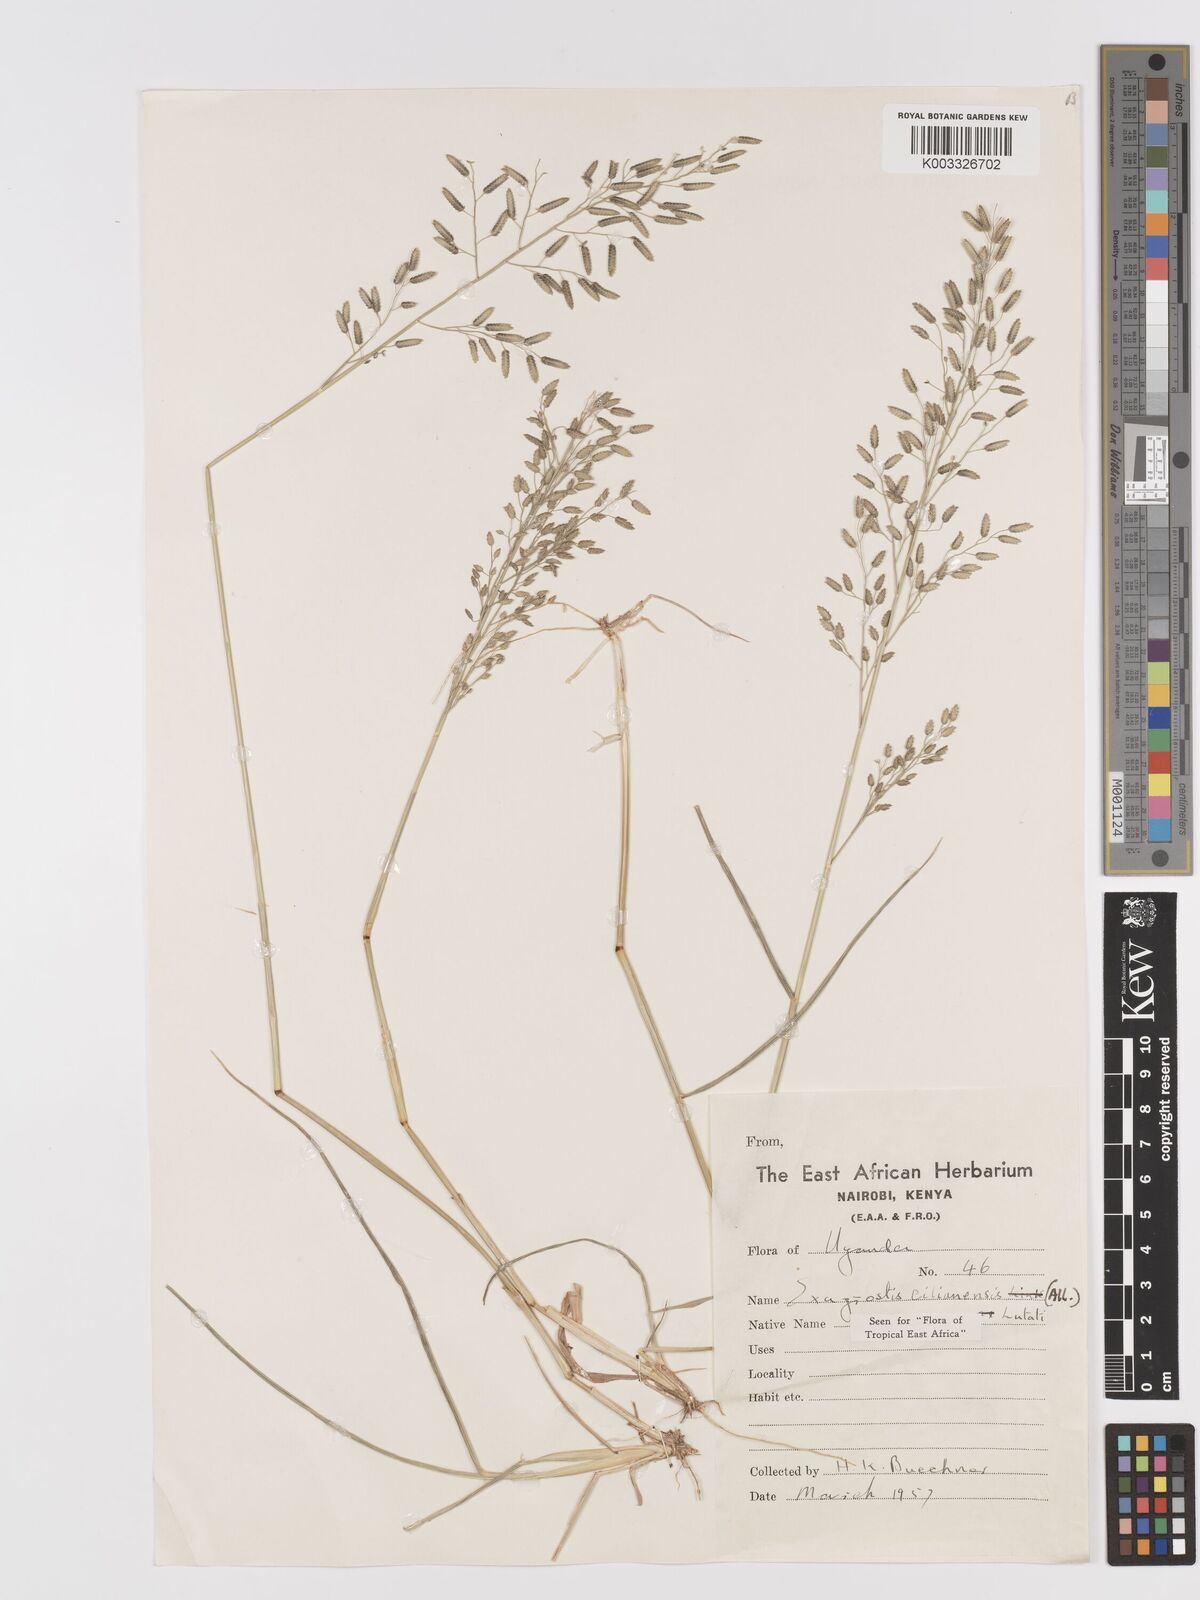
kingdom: Plantae
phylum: Tracheophyta
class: Liliopsida
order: Poales
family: Poaceae
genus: Eragrostis
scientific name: Eragrostis cilianensis
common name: Stinkgrass
